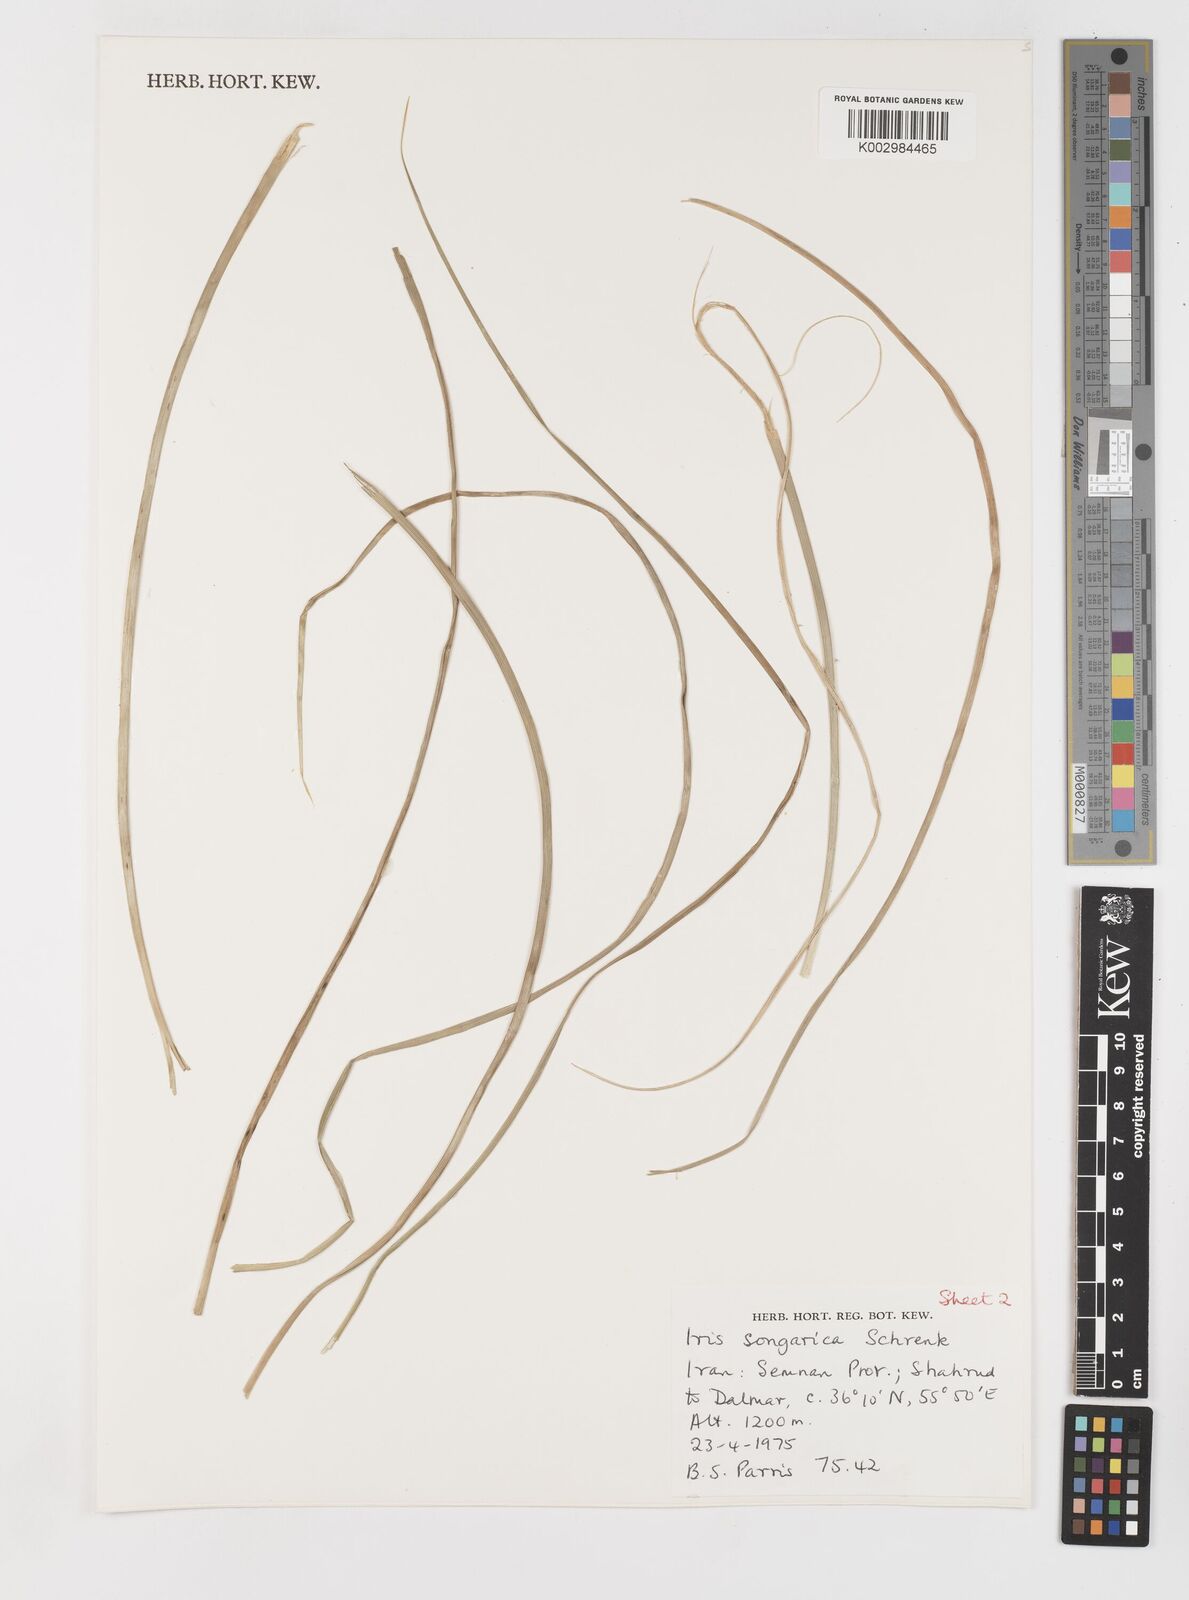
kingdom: Plantae
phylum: Tracheophyta
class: Liliopsida
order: Asparagales
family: Iridaceae
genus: Iris
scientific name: Iris songarica
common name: Songar iris
